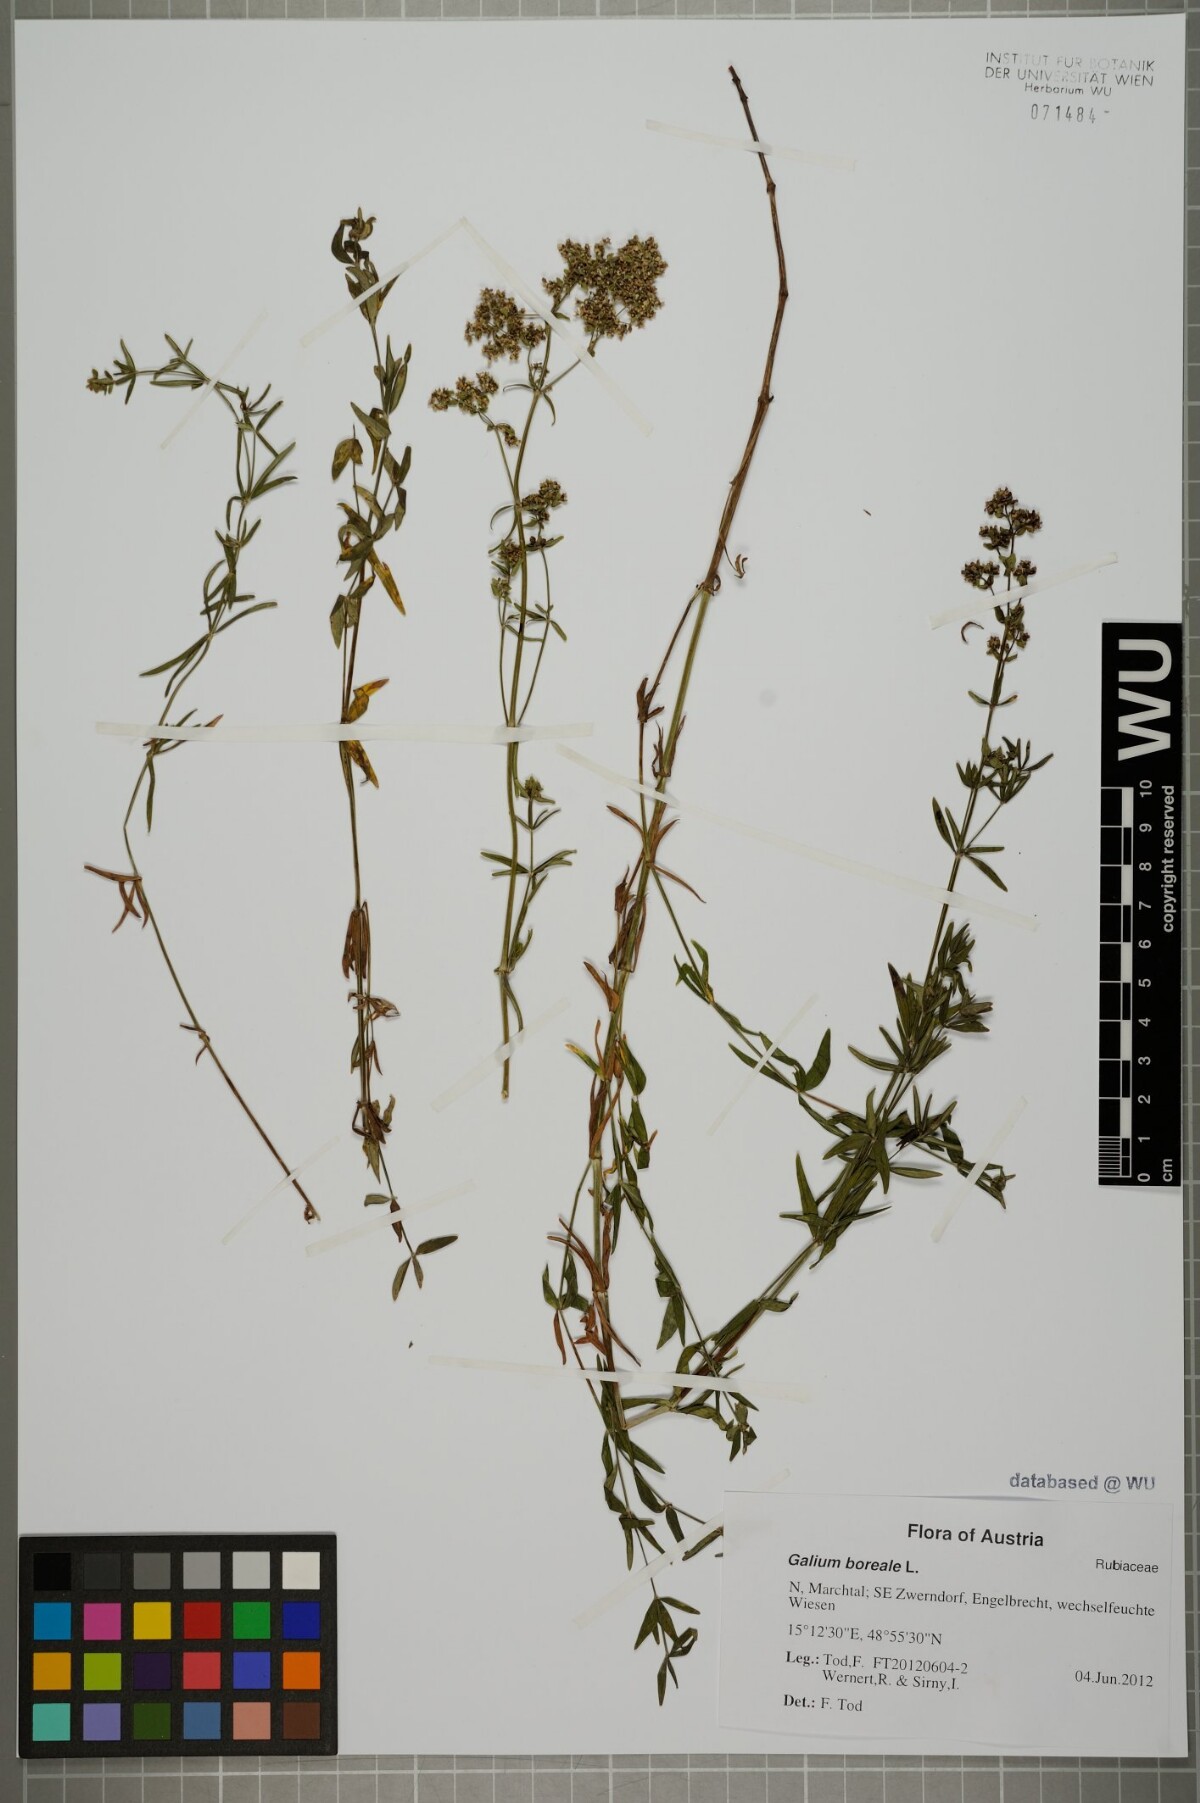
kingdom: Plantae
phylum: Tracheophyta
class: Magnoliopsida
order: Gentianales
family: Rubiaceae
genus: Galium
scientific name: Galium boreale
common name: Northern bedstraw
